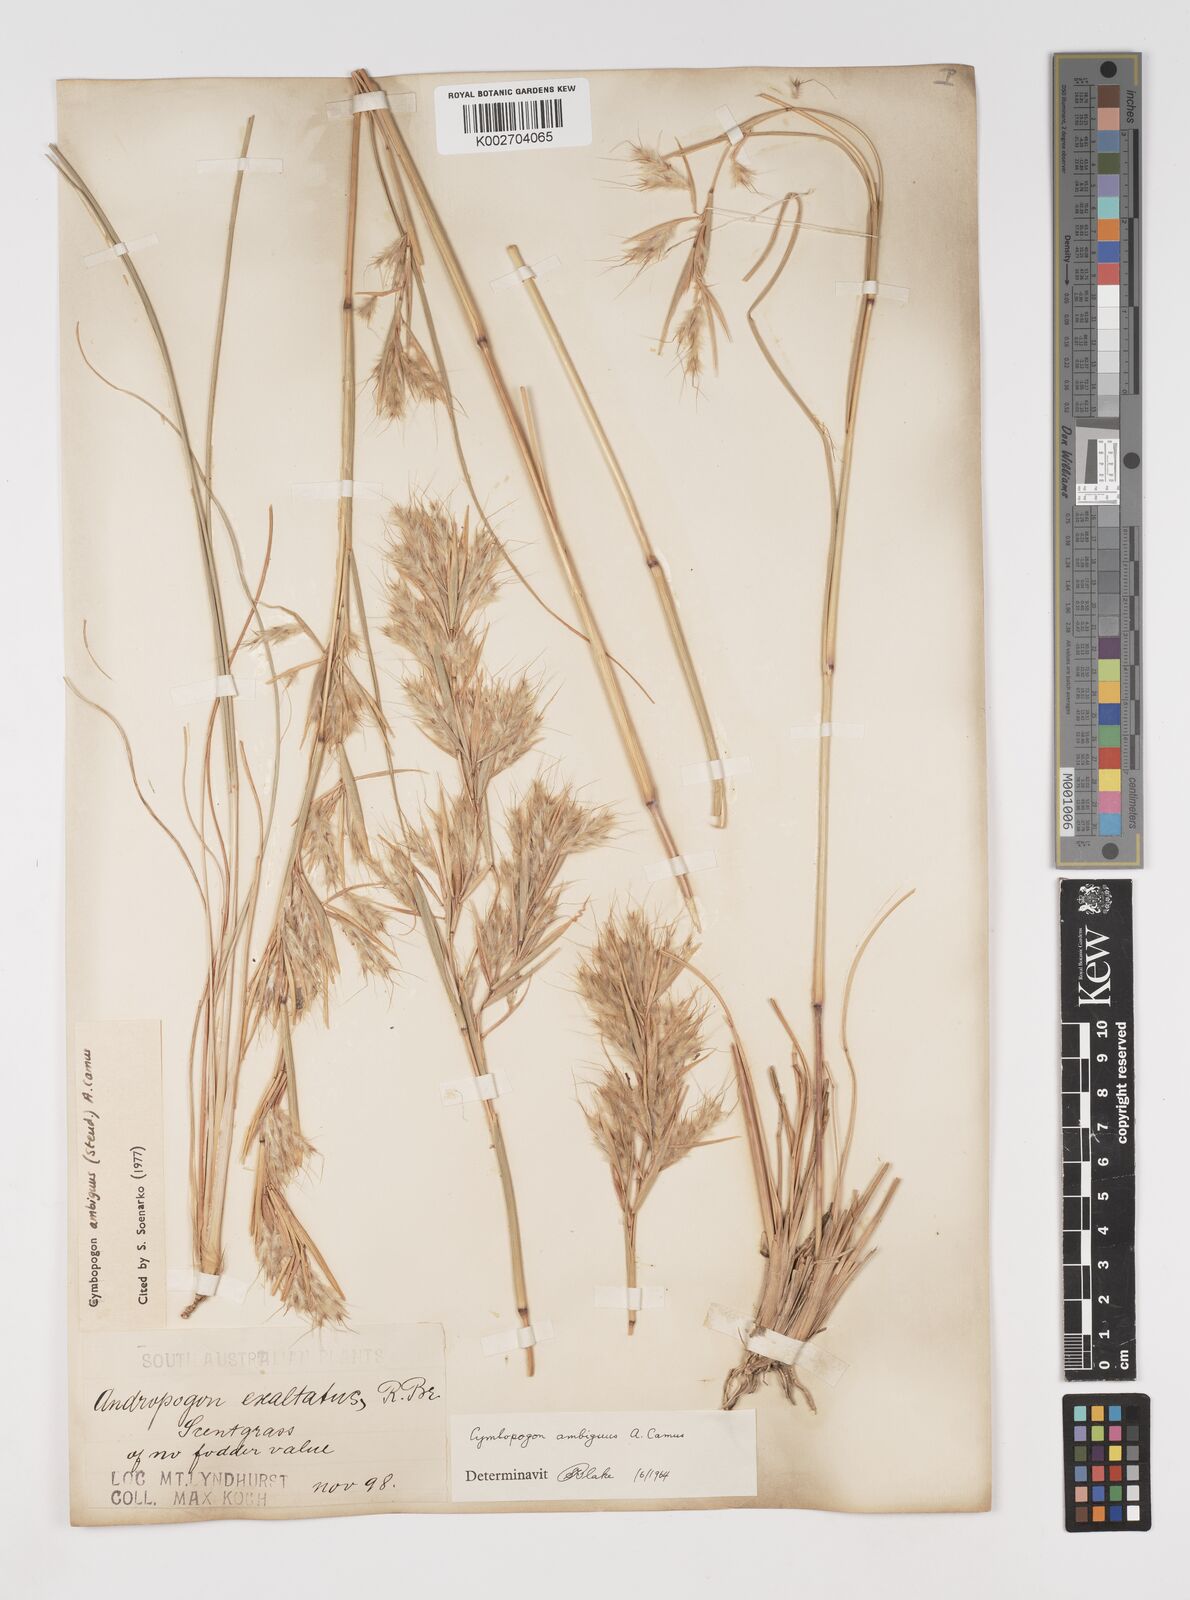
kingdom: Plantae
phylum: Tracheophyta
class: Liliopsida
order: Poales
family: Poaceae
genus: Cymbopogon
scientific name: Cymbopogon ambiguus
